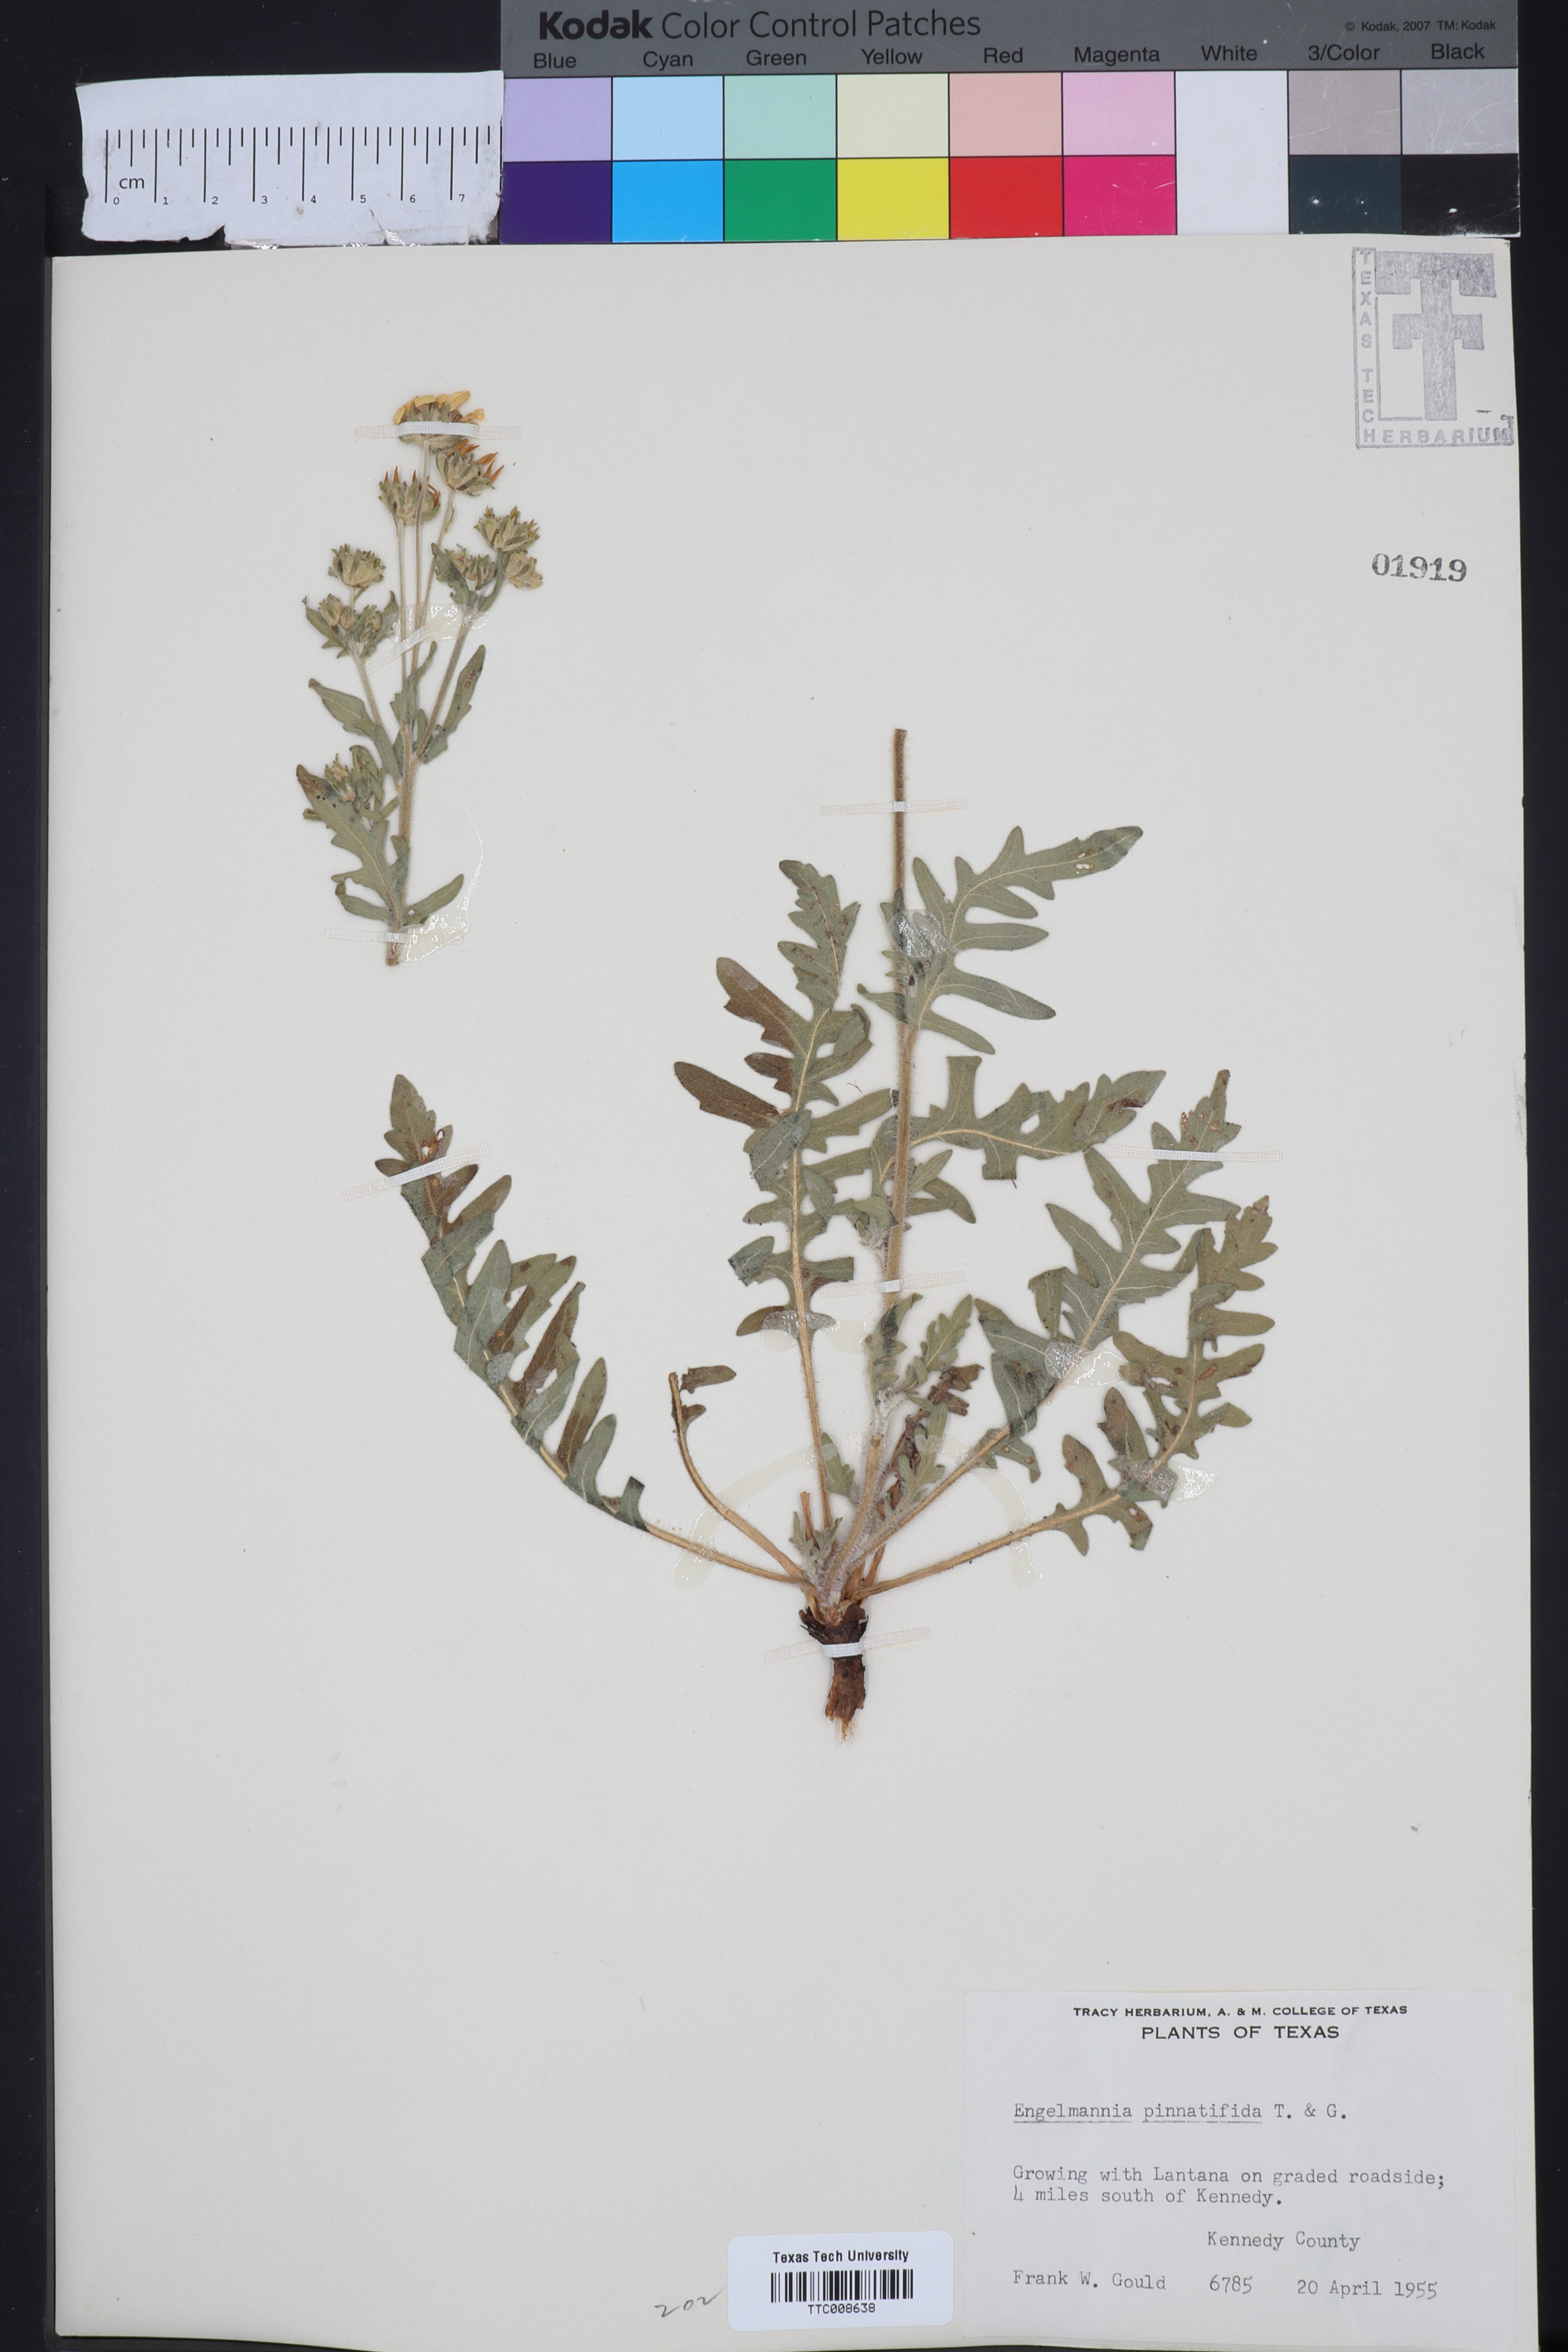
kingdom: Plantae
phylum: Tracheophyta
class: Magnoliopsida
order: Asterales
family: Asteraceae
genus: Engelmannia
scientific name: Engelmannia peristenia
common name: Engelmann's daisy
